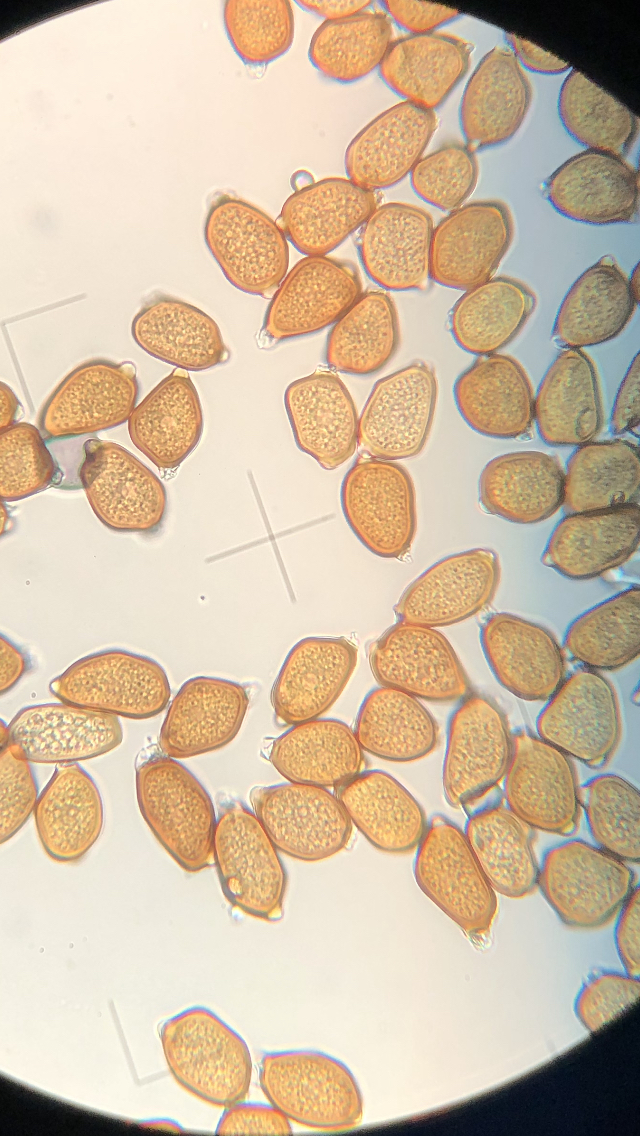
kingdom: Fungi
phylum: Basidiomycota
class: Pucciniomycetes
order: Pucciniales
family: Pucciniaceae
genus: Uromyces
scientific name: Uromyces ficariae
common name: vorterod-encellerust
